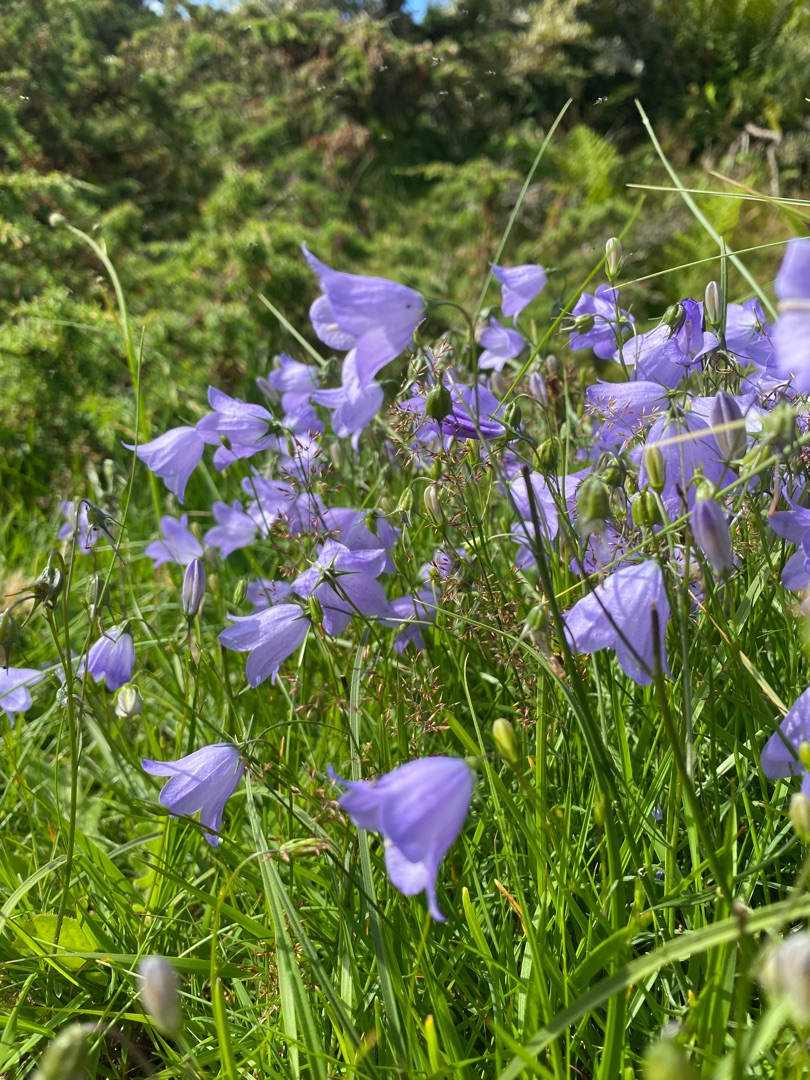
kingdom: Plantae
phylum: Tracheophyta
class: Magnoliopsida
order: Asterales
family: Campanulaceae
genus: Campanula
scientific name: Campanula rotundifolia
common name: Liden klokke
